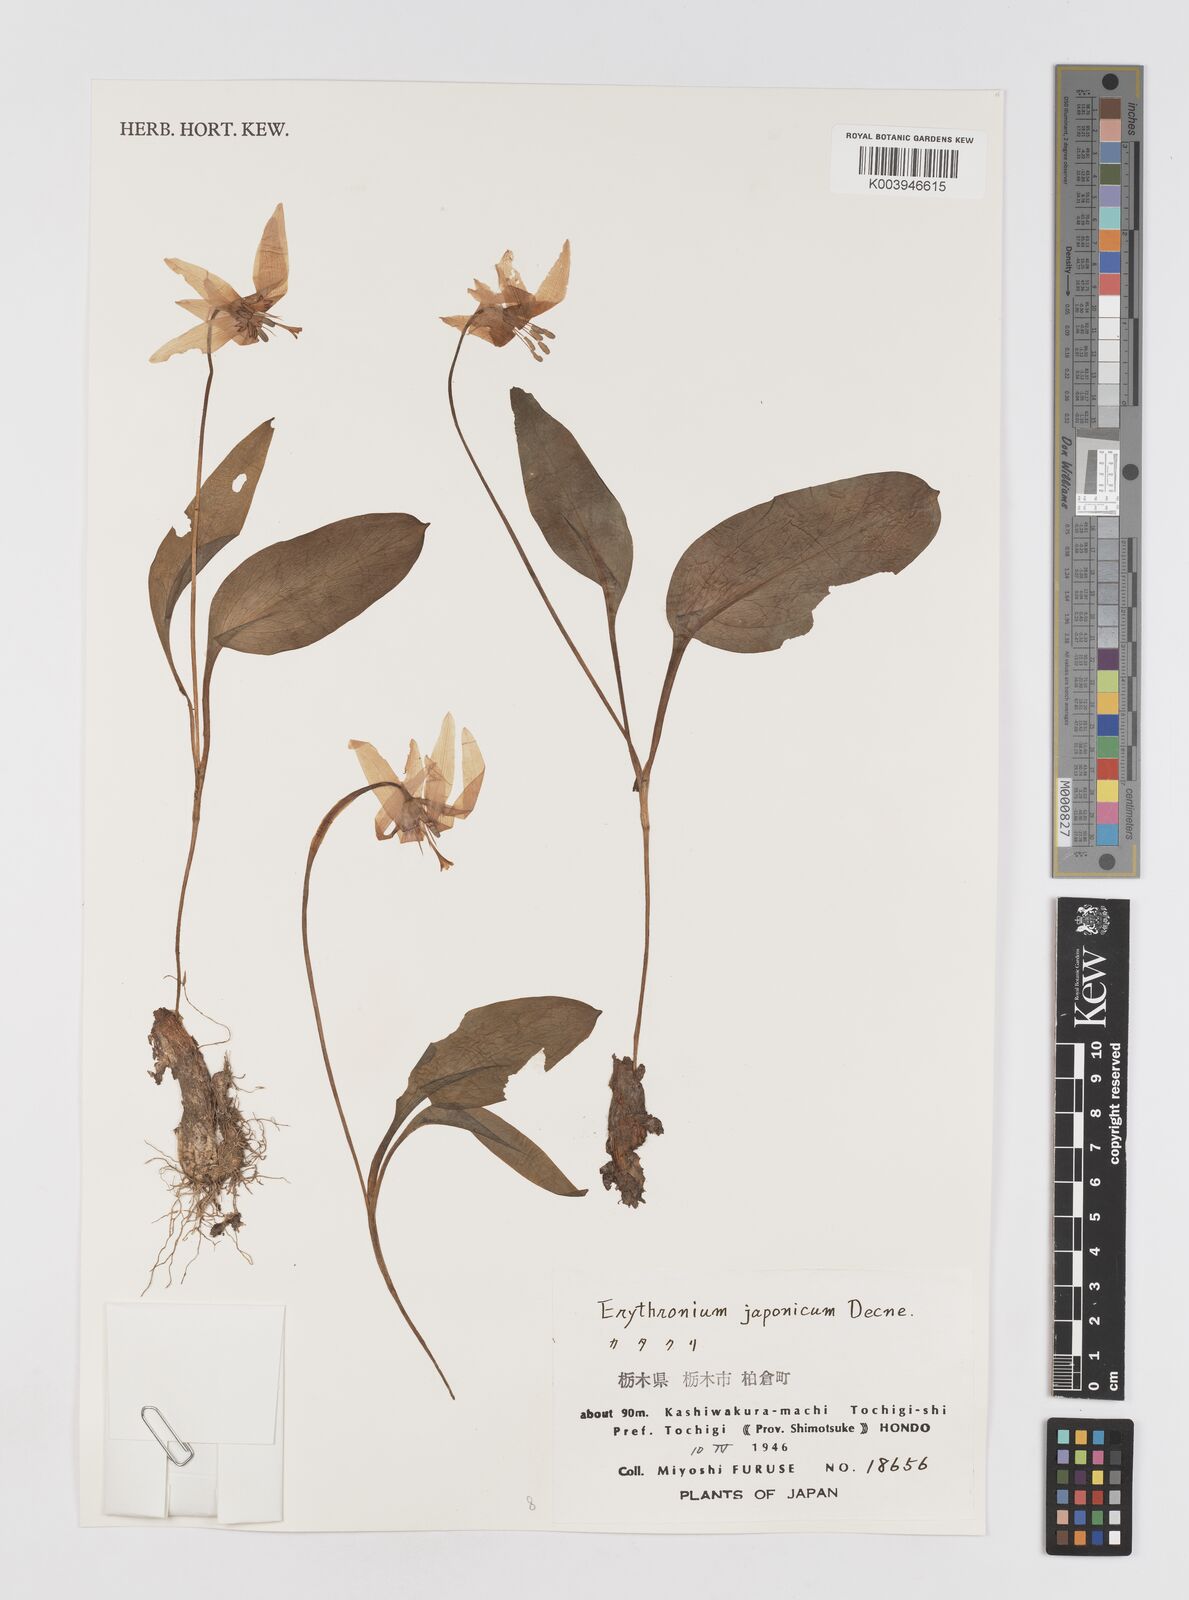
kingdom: Plantae
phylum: Tracheophyta
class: Liliopsida
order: Liliales
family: Liliaceae
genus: Erythronium
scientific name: Erythronium japonicum
